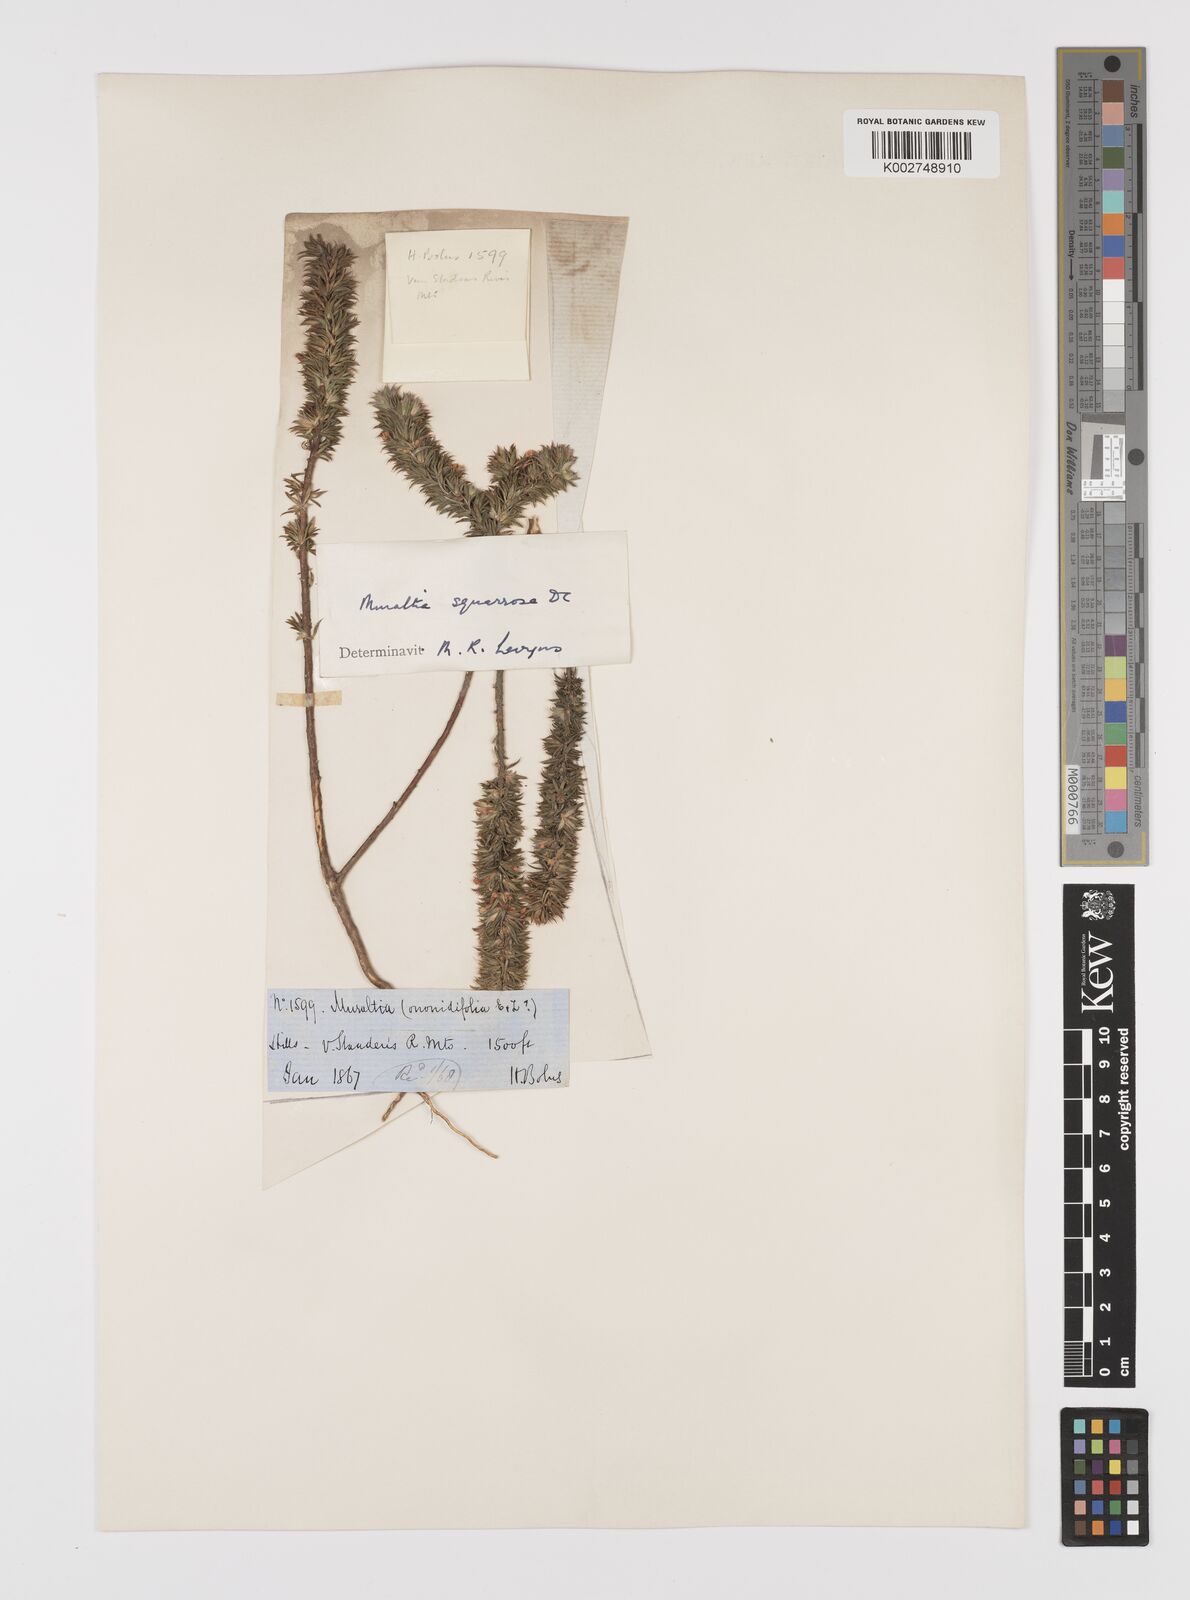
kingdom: Plantae
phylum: Tracheophyta
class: Magnoliopsida
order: Fabales
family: Polygalaceae
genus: Muraltia
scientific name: Muraltia squarrosa
